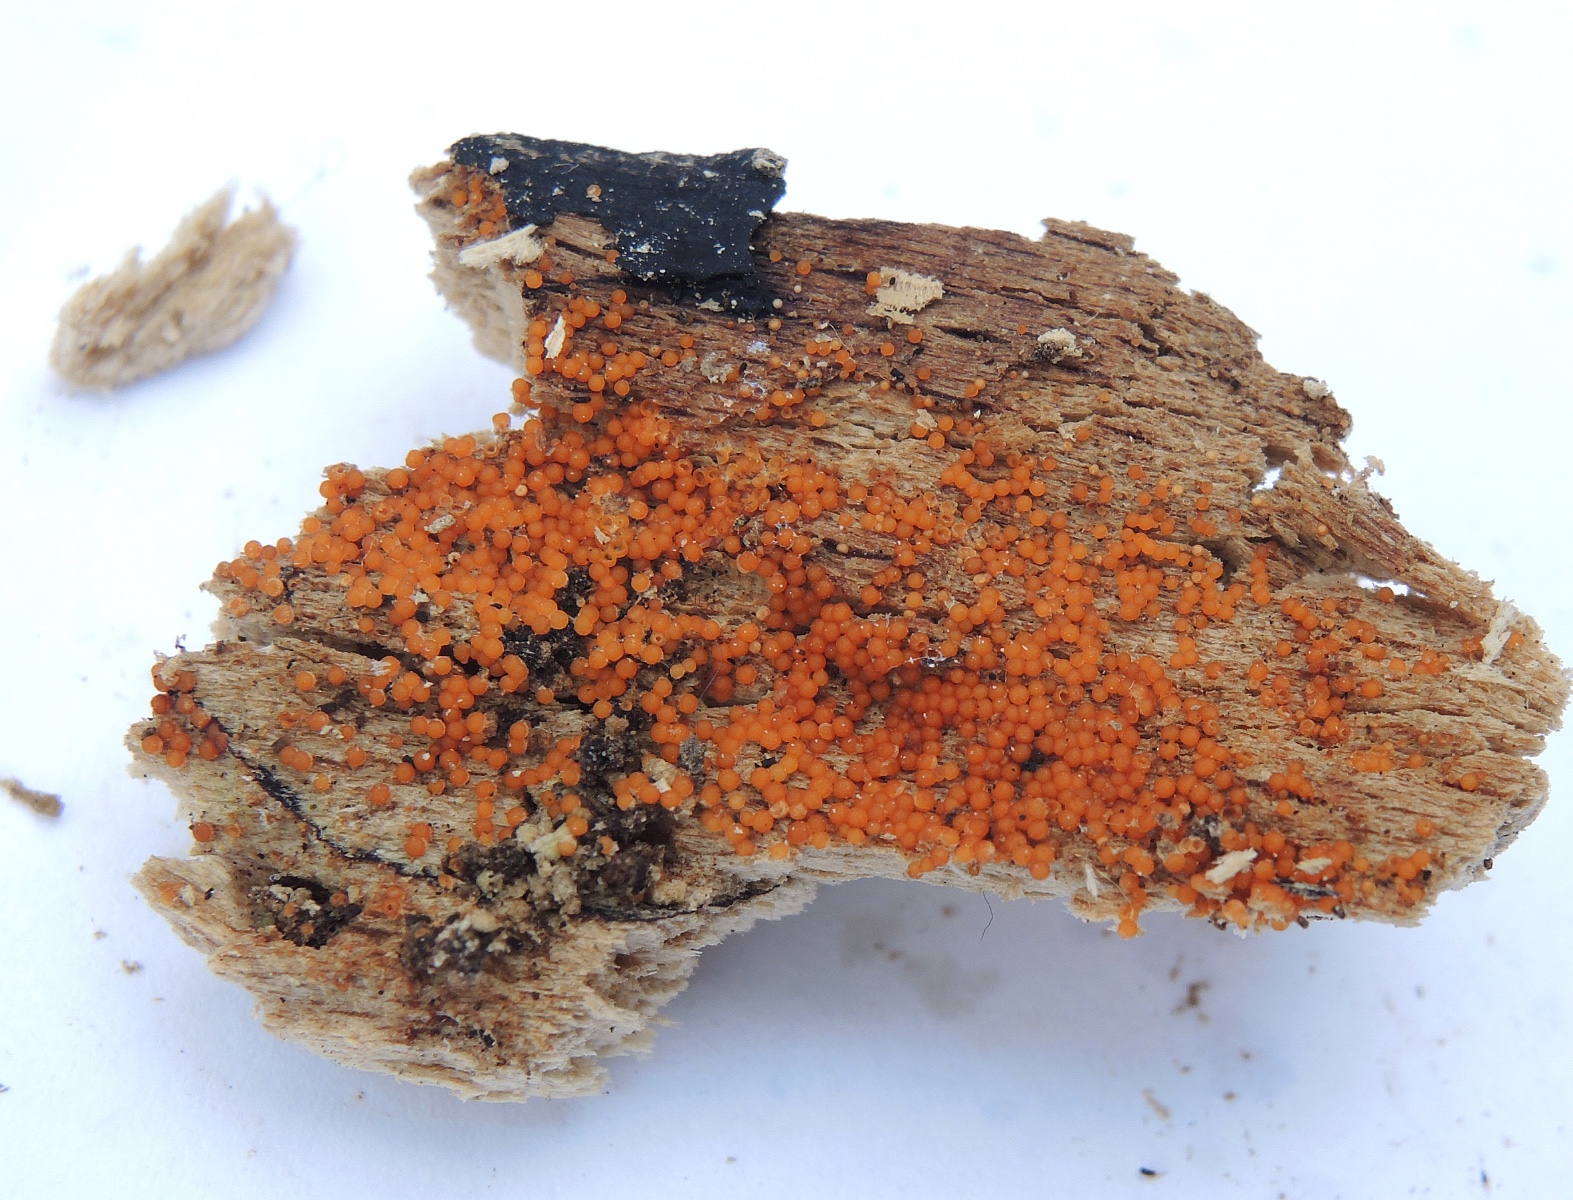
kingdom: Fungi
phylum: Ascomycota
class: Sordariomycetes
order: Hypocreales
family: Nectriaceae
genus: Hydropisphaera
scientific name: Hydropisphaera peziza
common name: skålformet gyldenkerne
